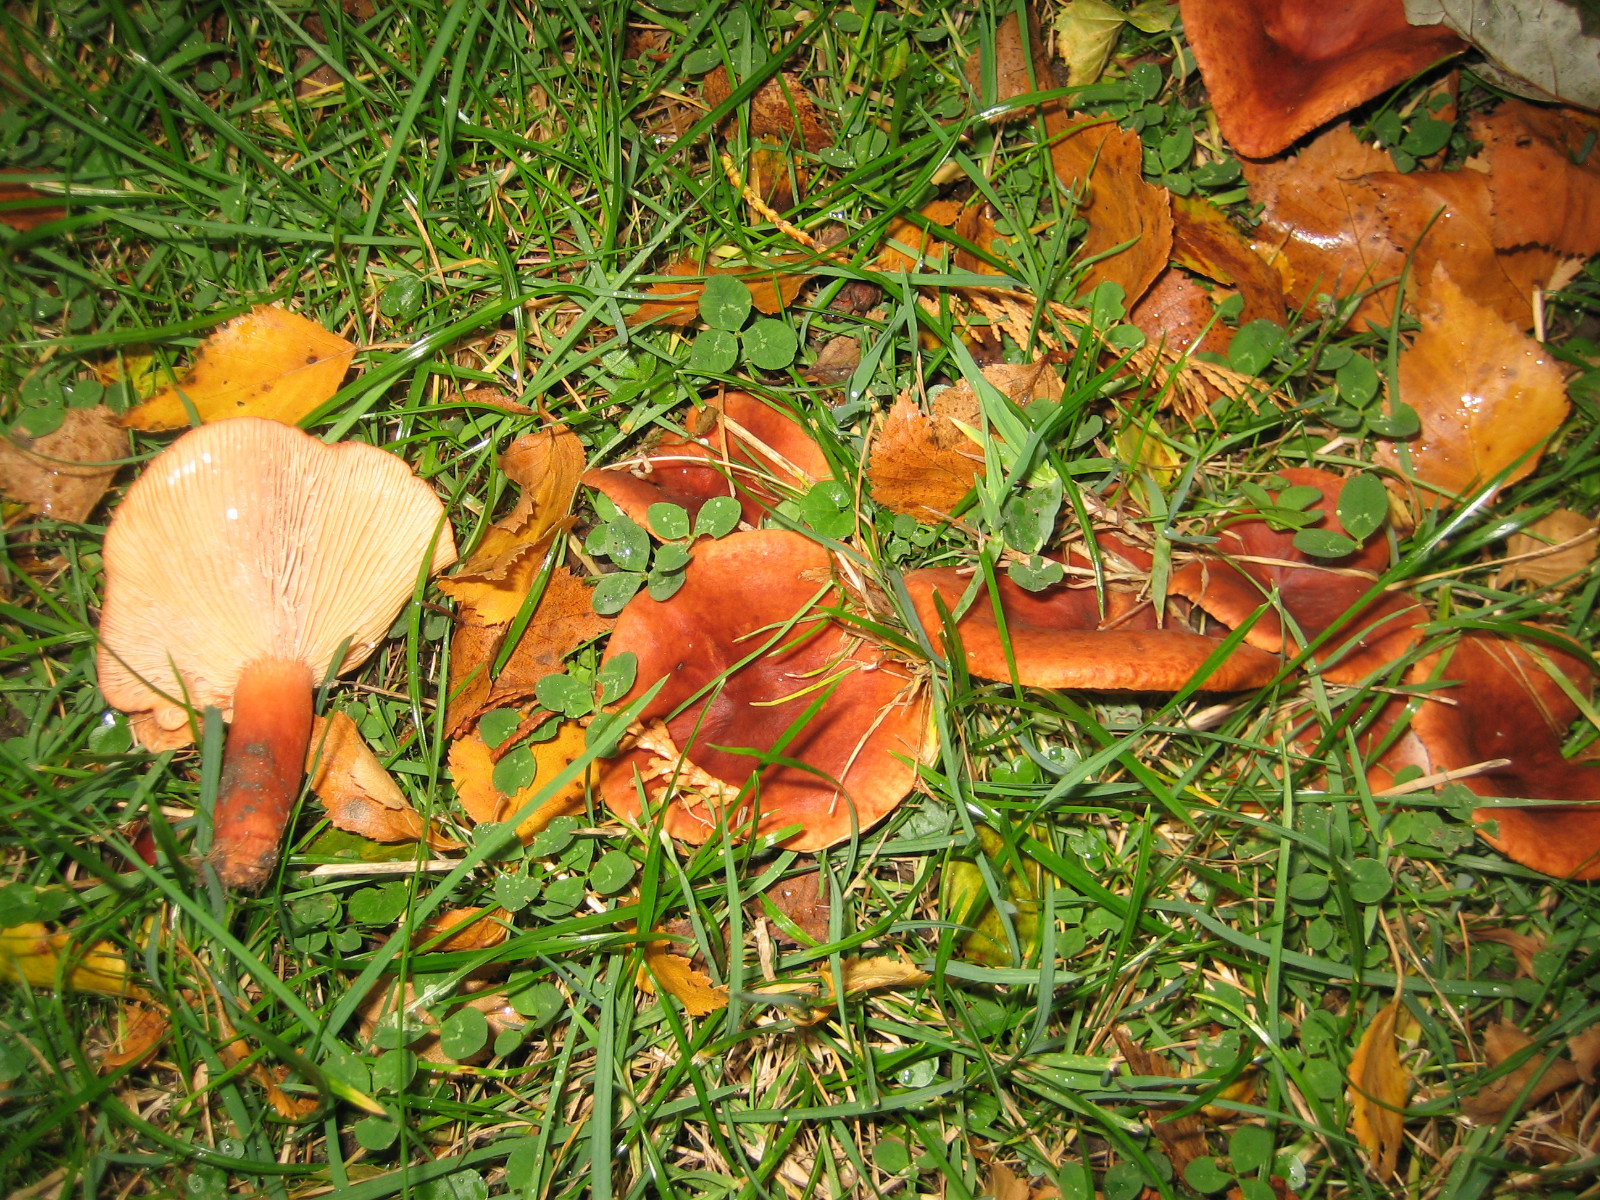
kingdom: Fungi
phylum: Basidiomycota
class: Agaricomycetes
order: Russulales
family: Russulaceae
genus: Lactarius
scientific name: Lactarius fulvissimus
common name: ræve-mælkehat
